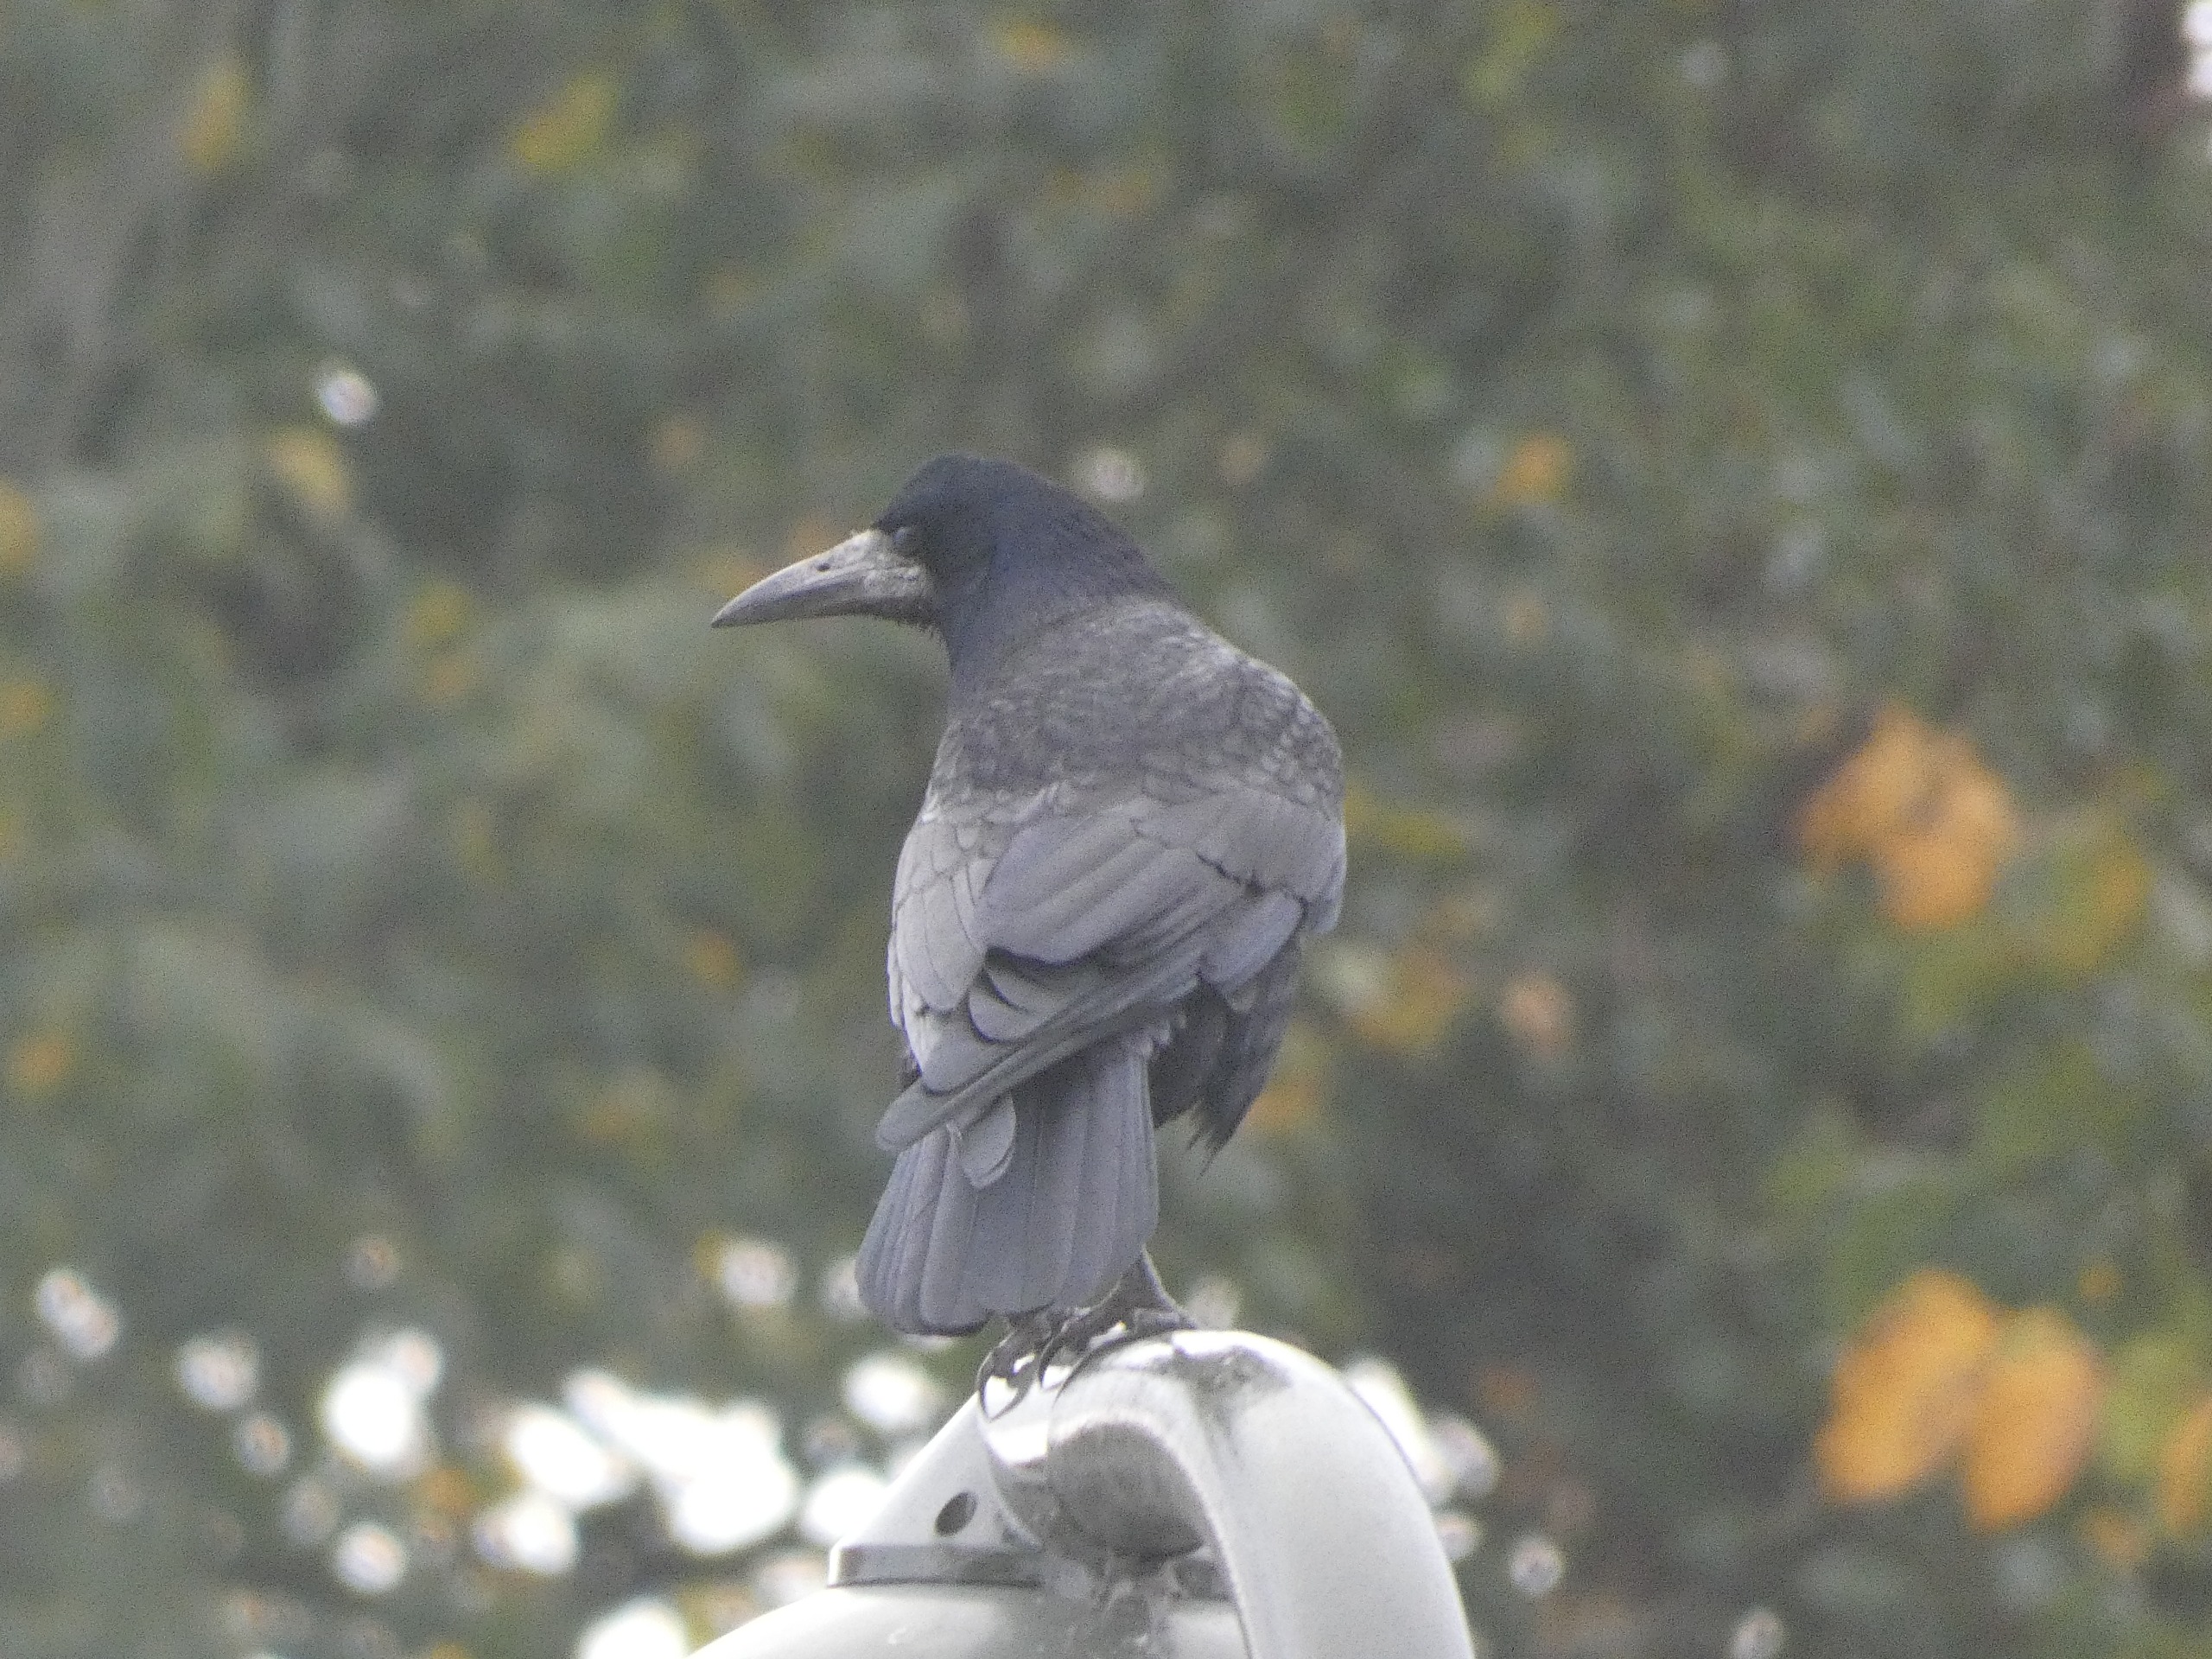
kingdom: Animalia
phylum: Chordata
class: Aves
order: Passeriformes
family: Corvidae
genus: Corvus
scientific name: Corvus frugilegus
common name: Råge
